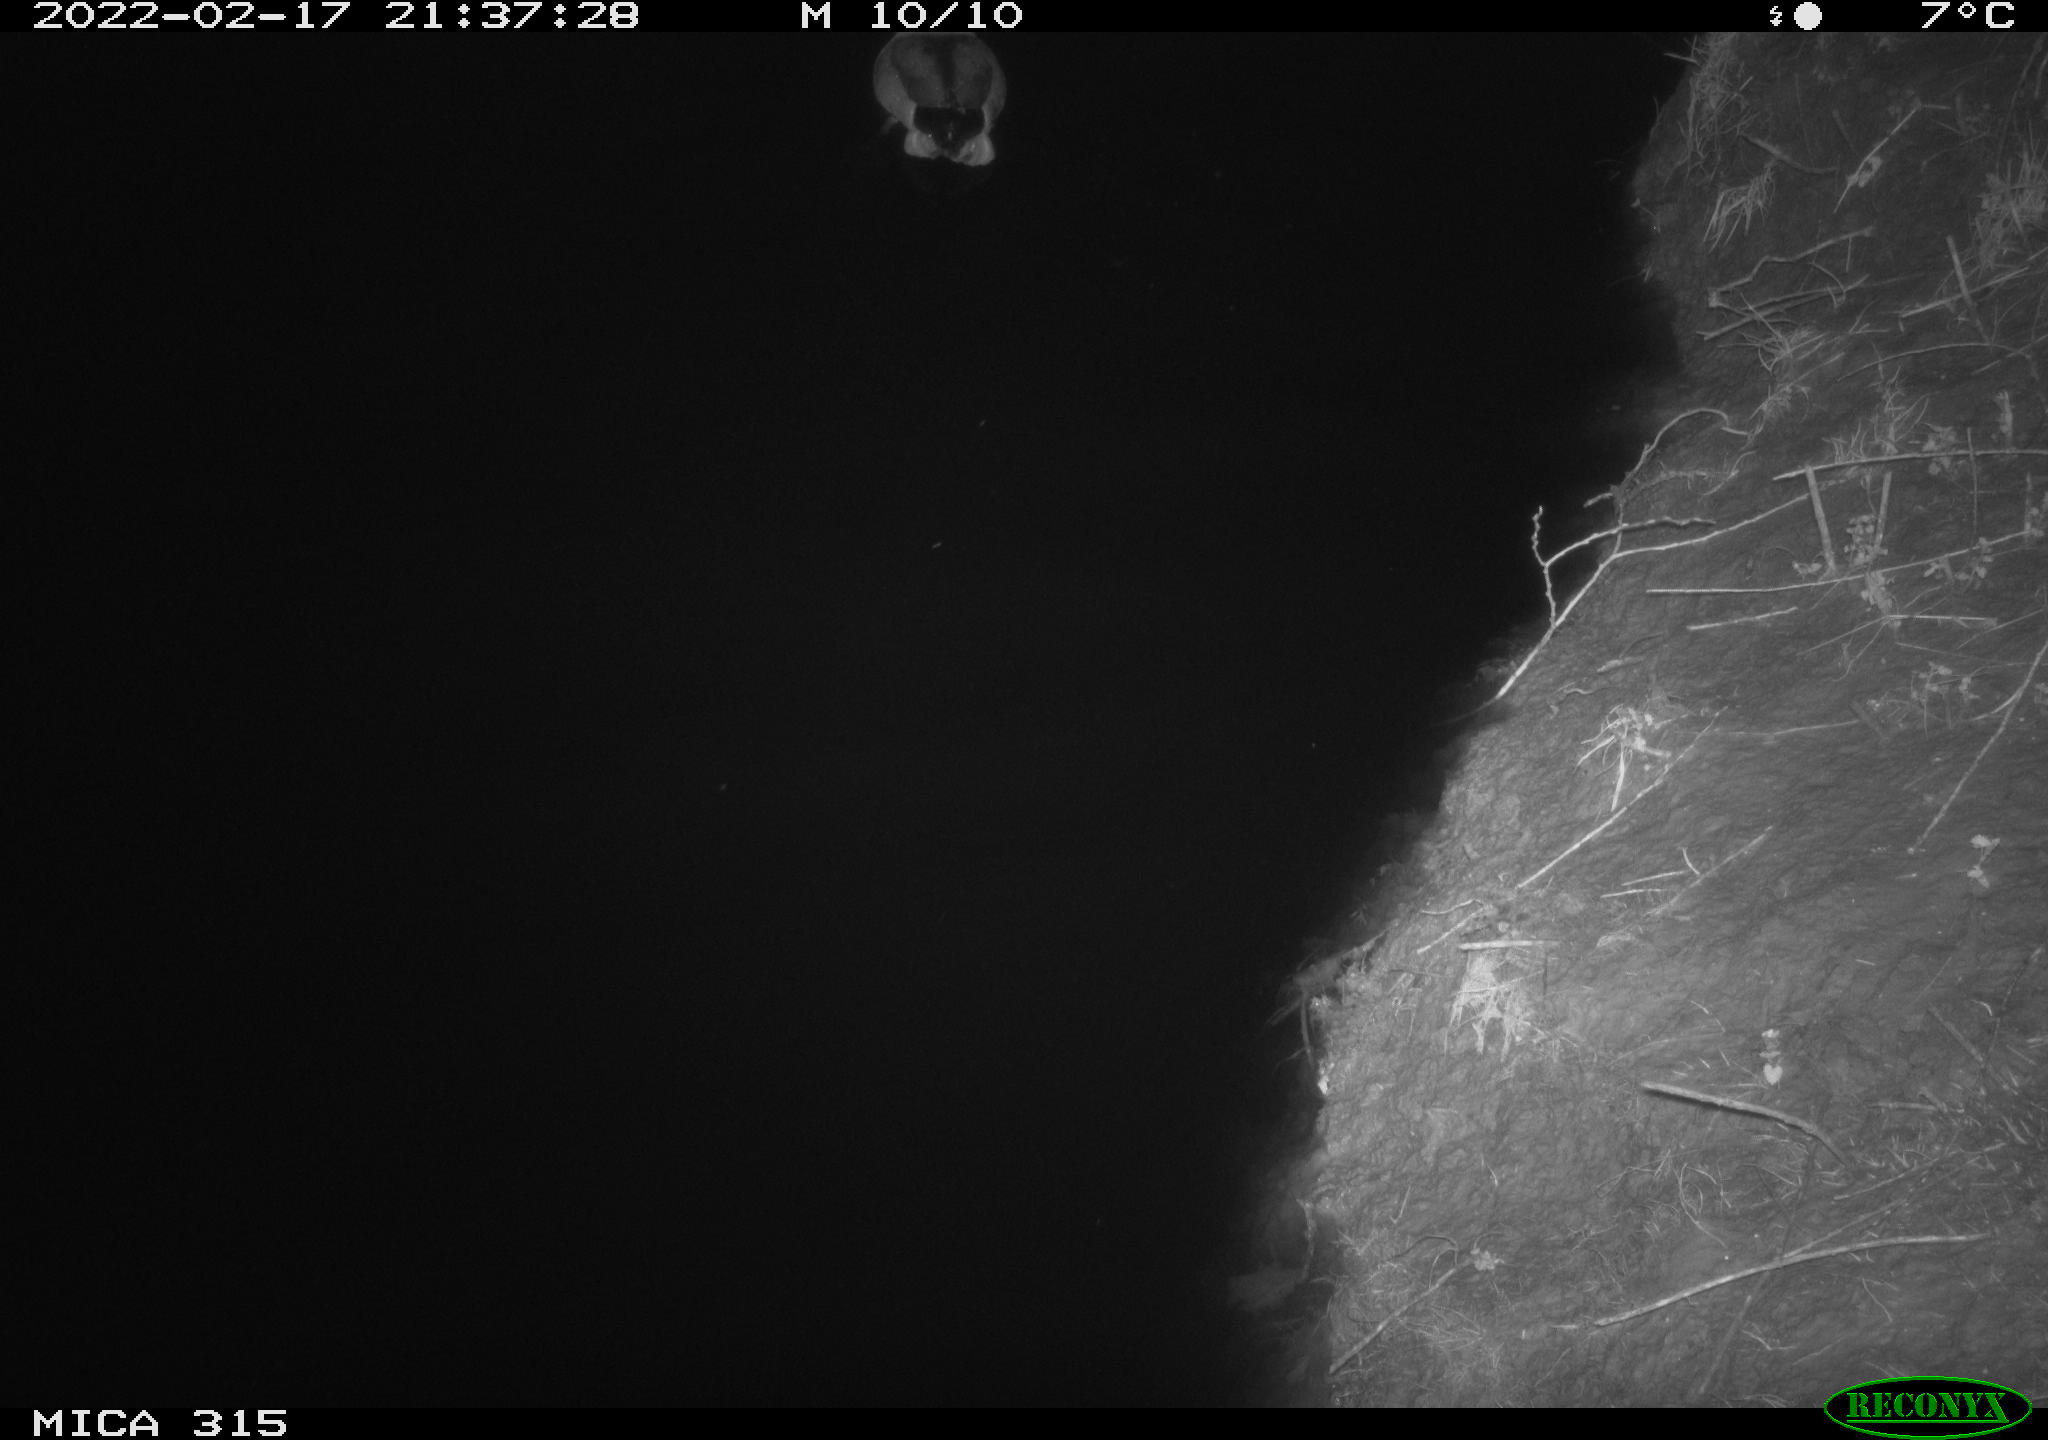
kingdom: Animalia
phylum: Chordata
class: Aves
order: Anseriformes
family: Anatidae
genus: Anas
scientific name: Anas
